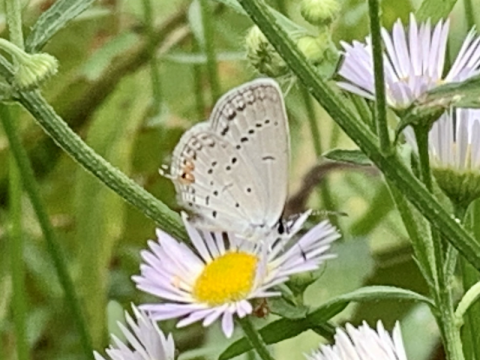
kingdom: Animalia
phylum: Arthropoda
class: Insecta
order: Lepidoptera
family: Lycaenidae
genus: Elkalyce
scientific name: Elkalyce comyntas
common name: Eastern Tailed-Blue
